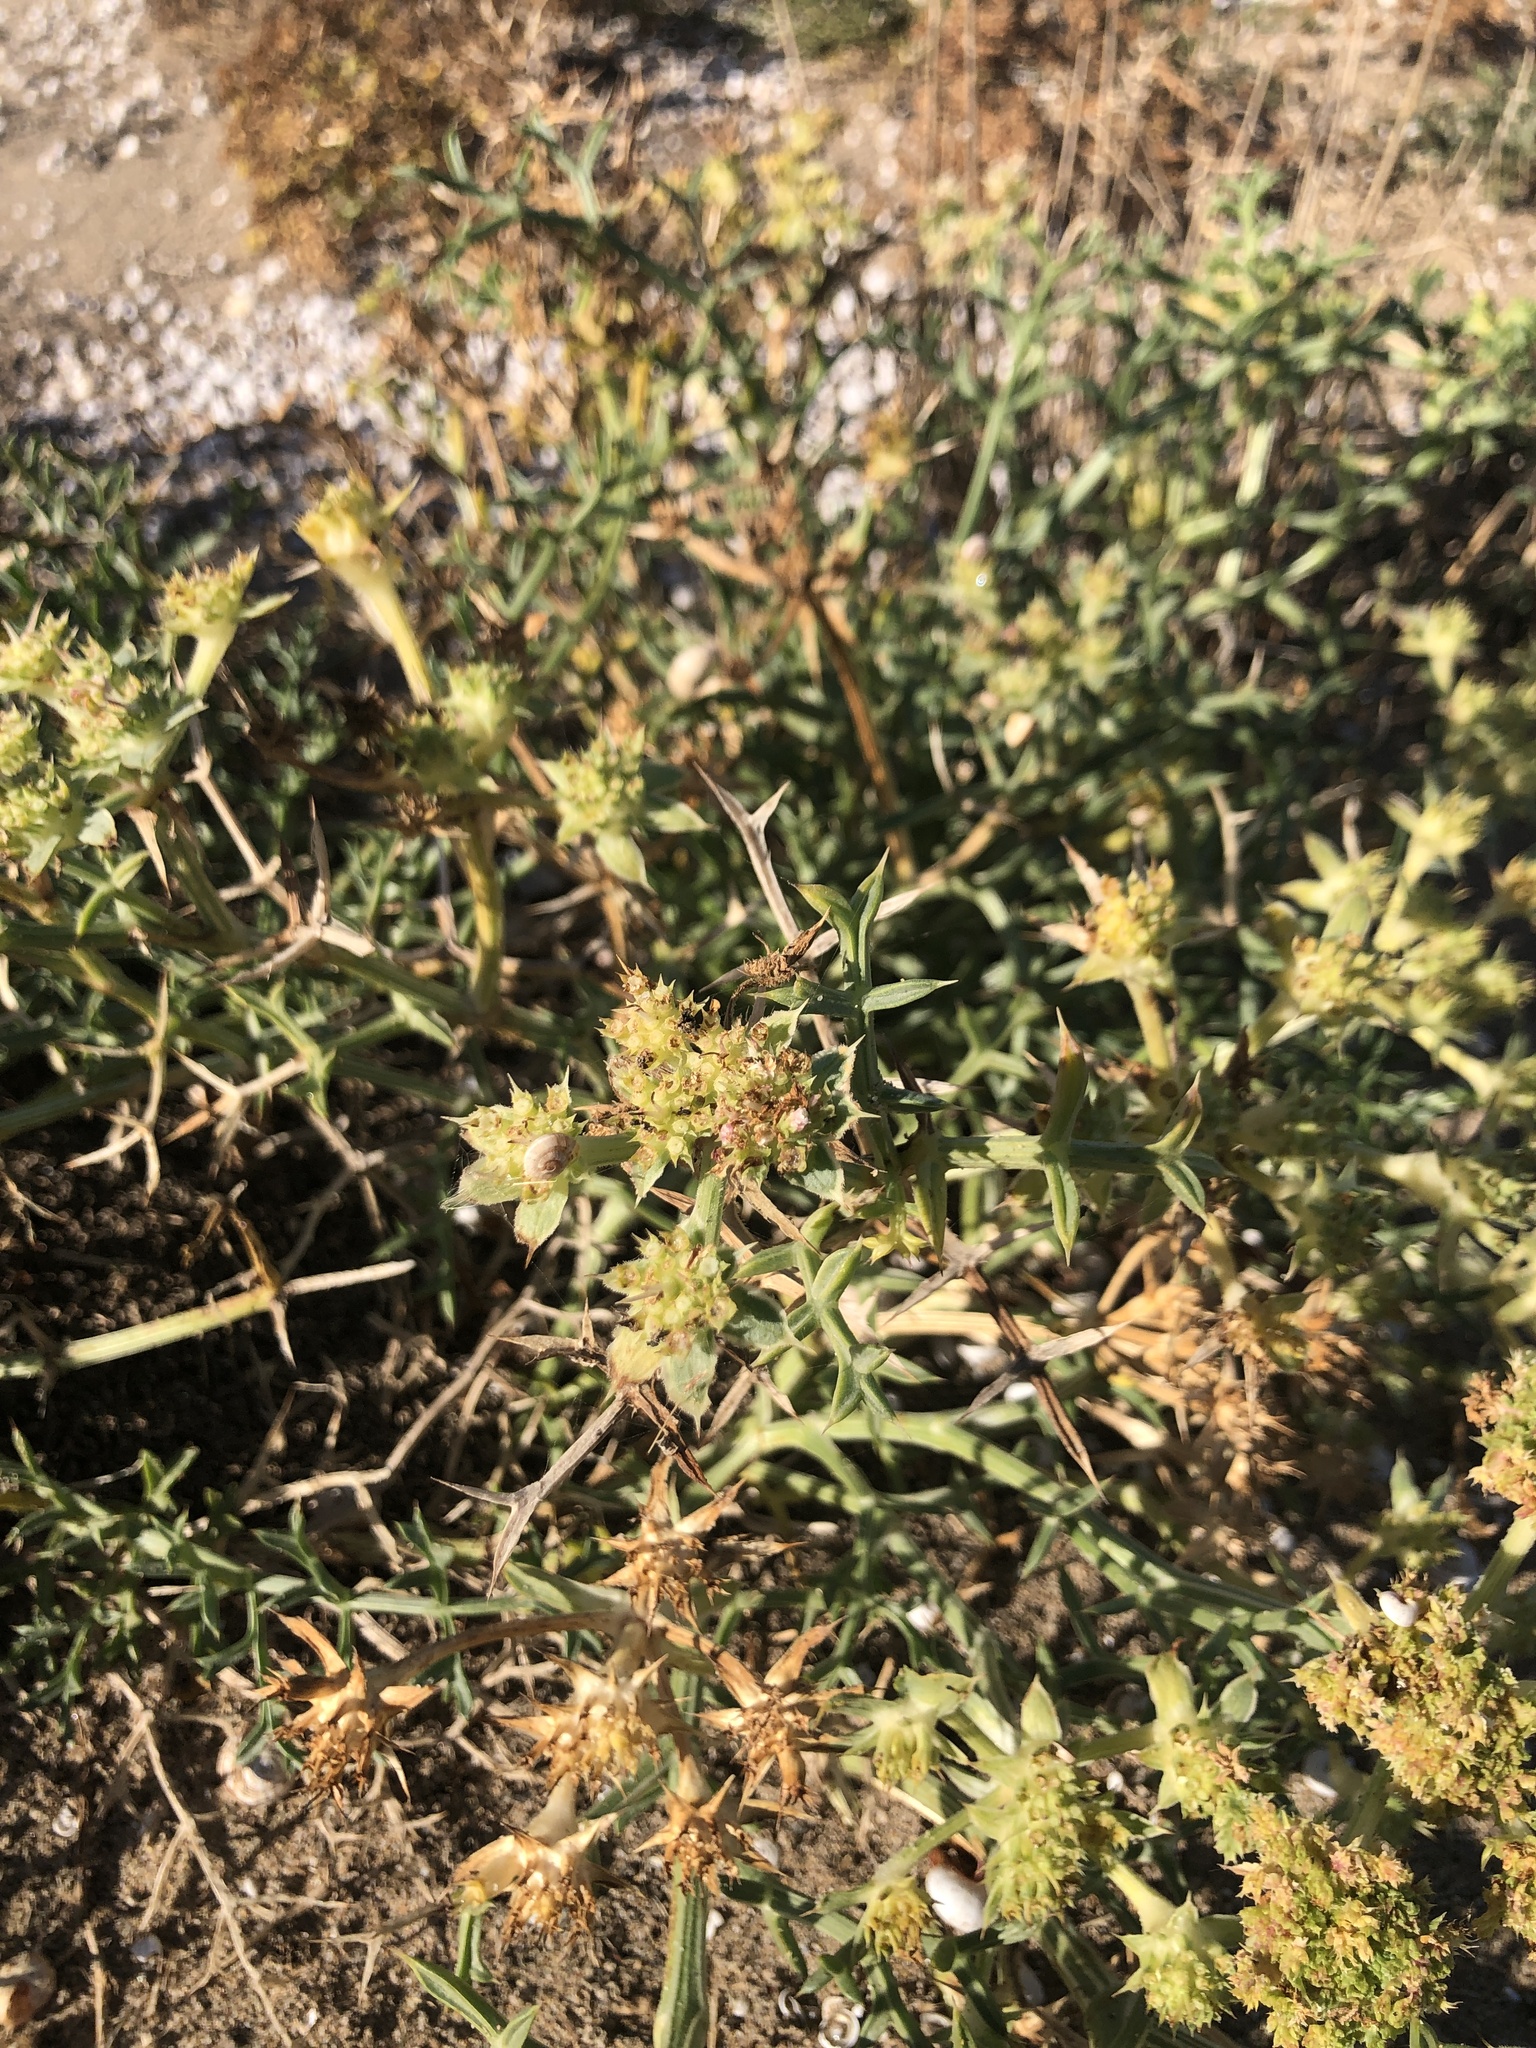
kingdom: Plantae
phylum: Tracheophyta
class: Magnoliopsida
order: Apiales
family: Apiaceae
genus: Echinophora
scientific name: Echinophora spinosa
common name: Prickly samphire
